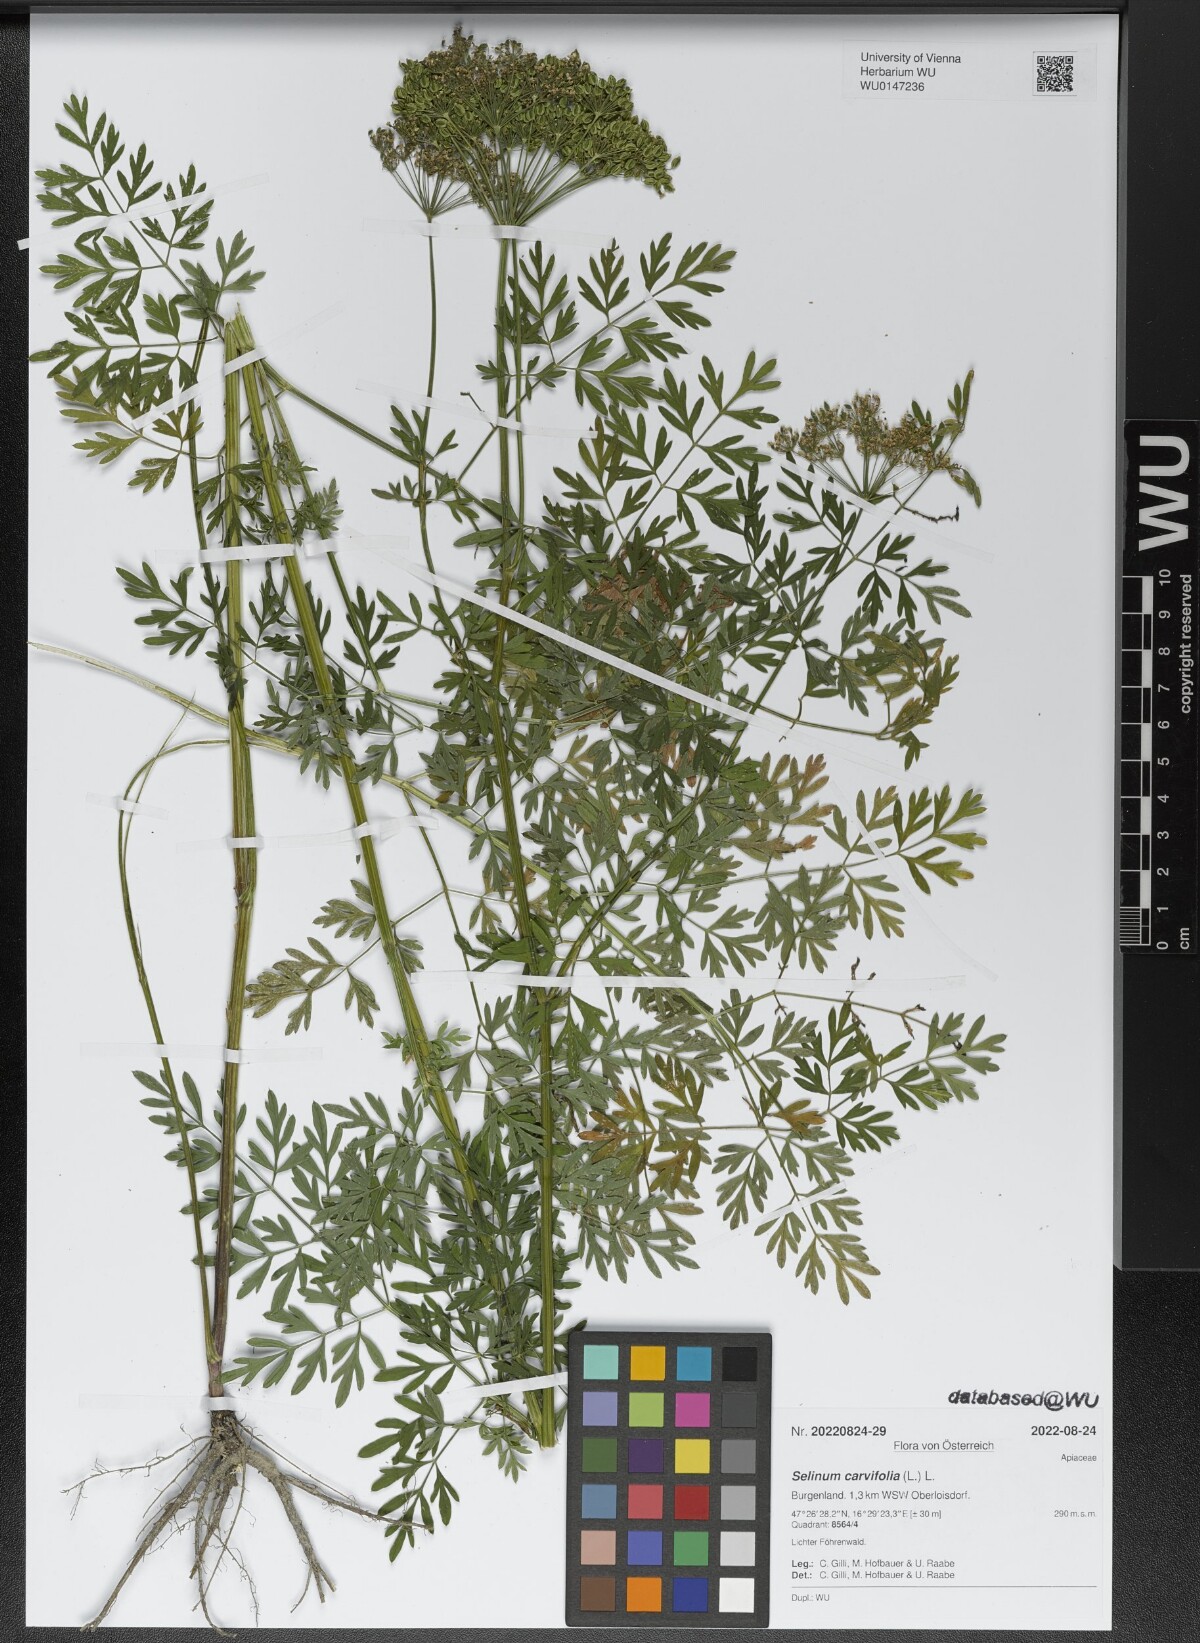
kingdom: Plantae
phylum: Tracheophyta
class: Magnoliopsida
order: Apiales
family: Apiaceae
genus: Selinum
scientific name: Selinum carvifolia
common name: Cambridge milk-parsley
